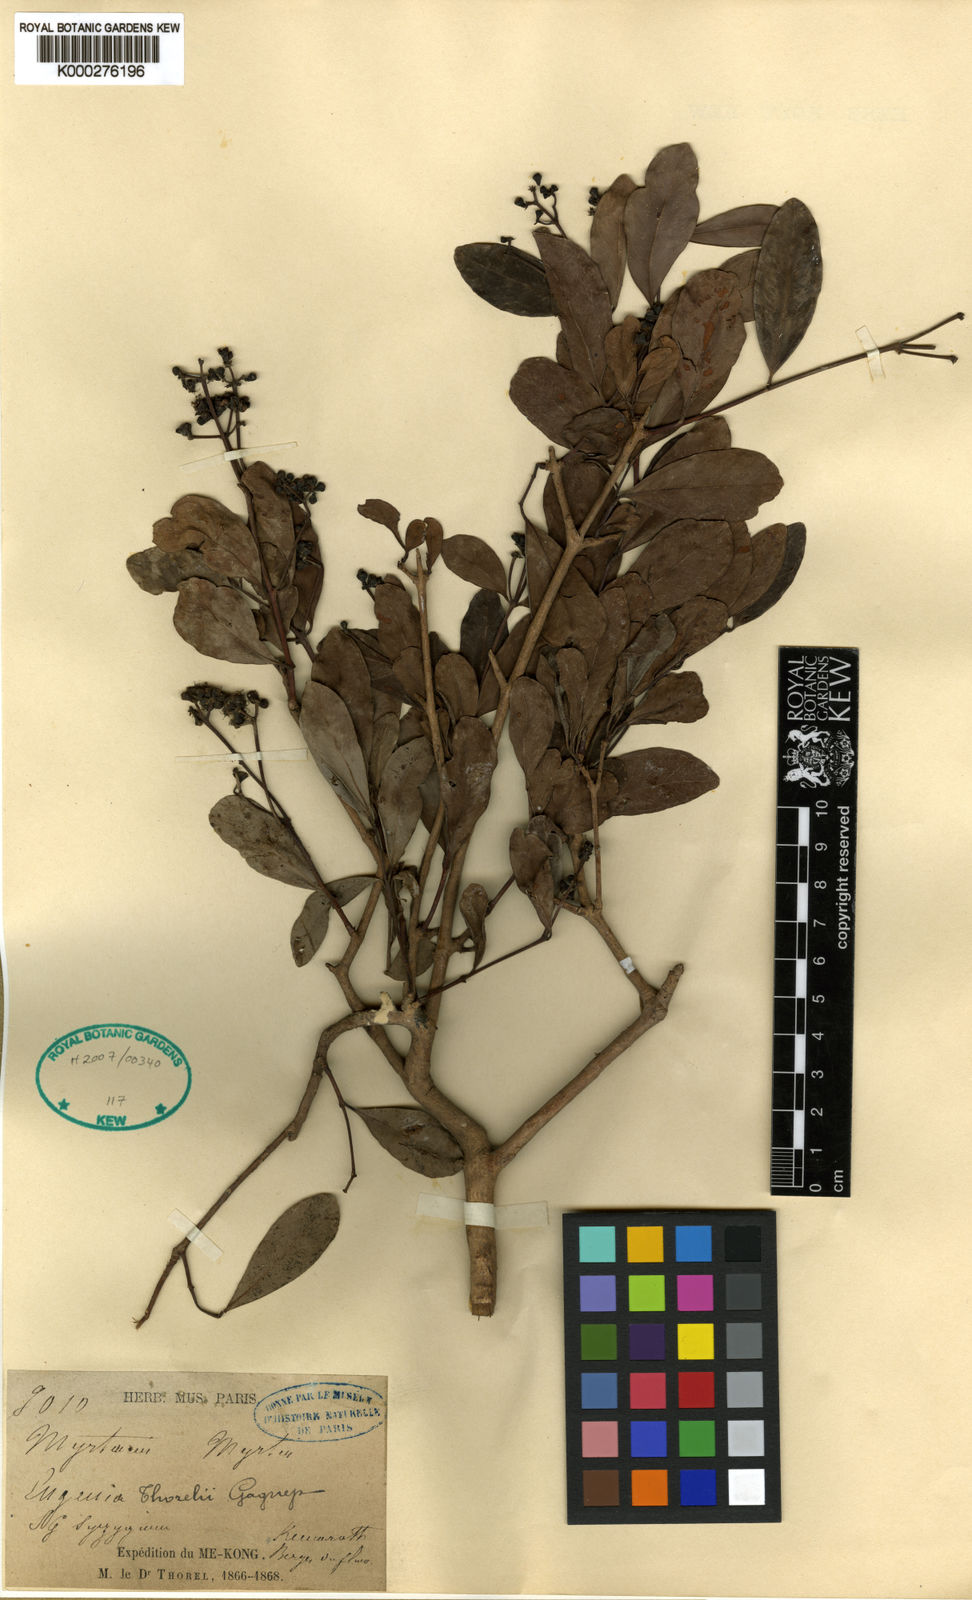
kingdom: Plantae
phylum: Tracheophyta
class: Magnoliopsida
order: Myrtales
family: Myrtaceae
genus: Syzygium
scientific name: Syzygium thorelii
